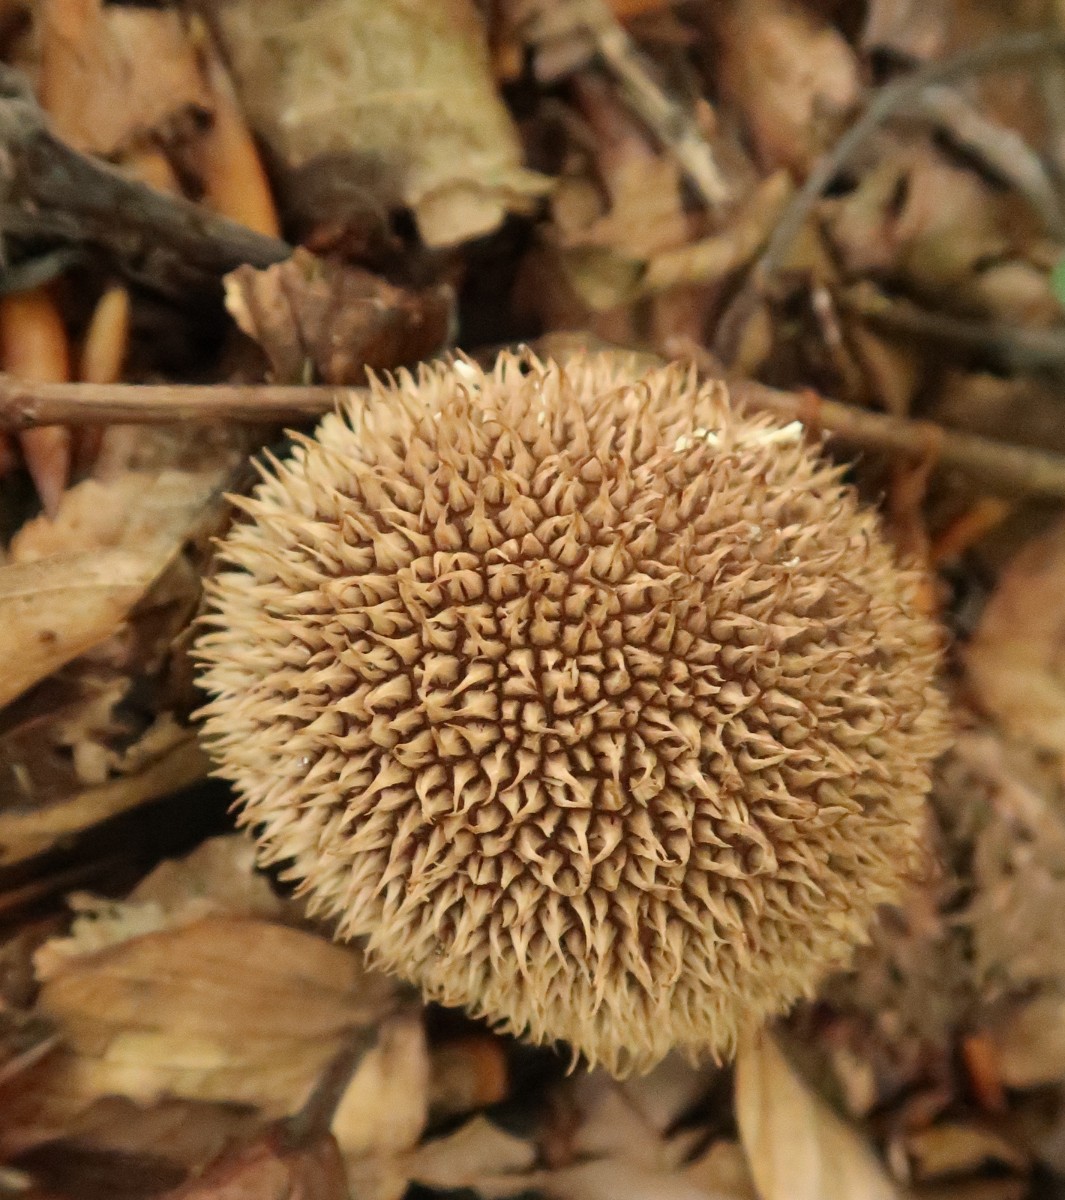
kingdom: Fungi
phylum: Basidiomycota
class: Agaricomycetes
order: Agaricales
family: Lycoperdaceae
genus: Lycoperdon
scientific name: Lycoperdon nigrescens
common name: sortagtig støvbold
